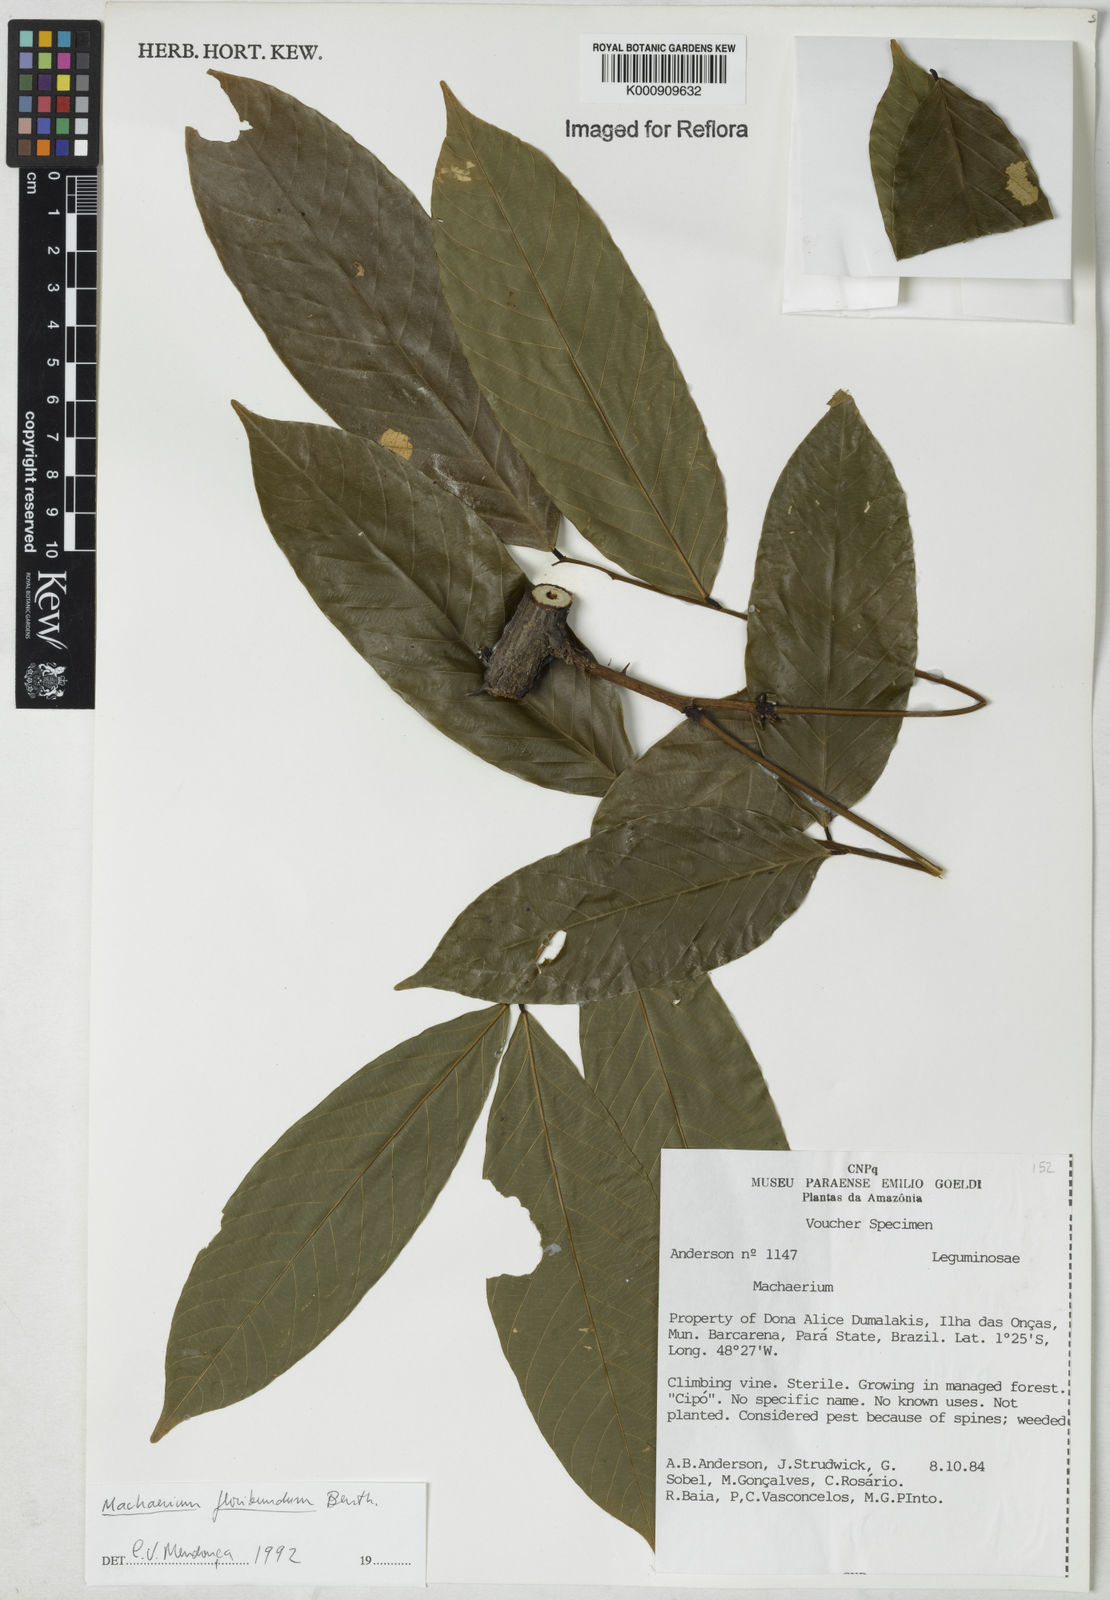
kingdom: Plantae
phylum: Tracheophyta
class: Magnoliopsida
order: Fabales
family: Fabaceae
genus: Machaerium
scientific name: Machaerium floribundum
